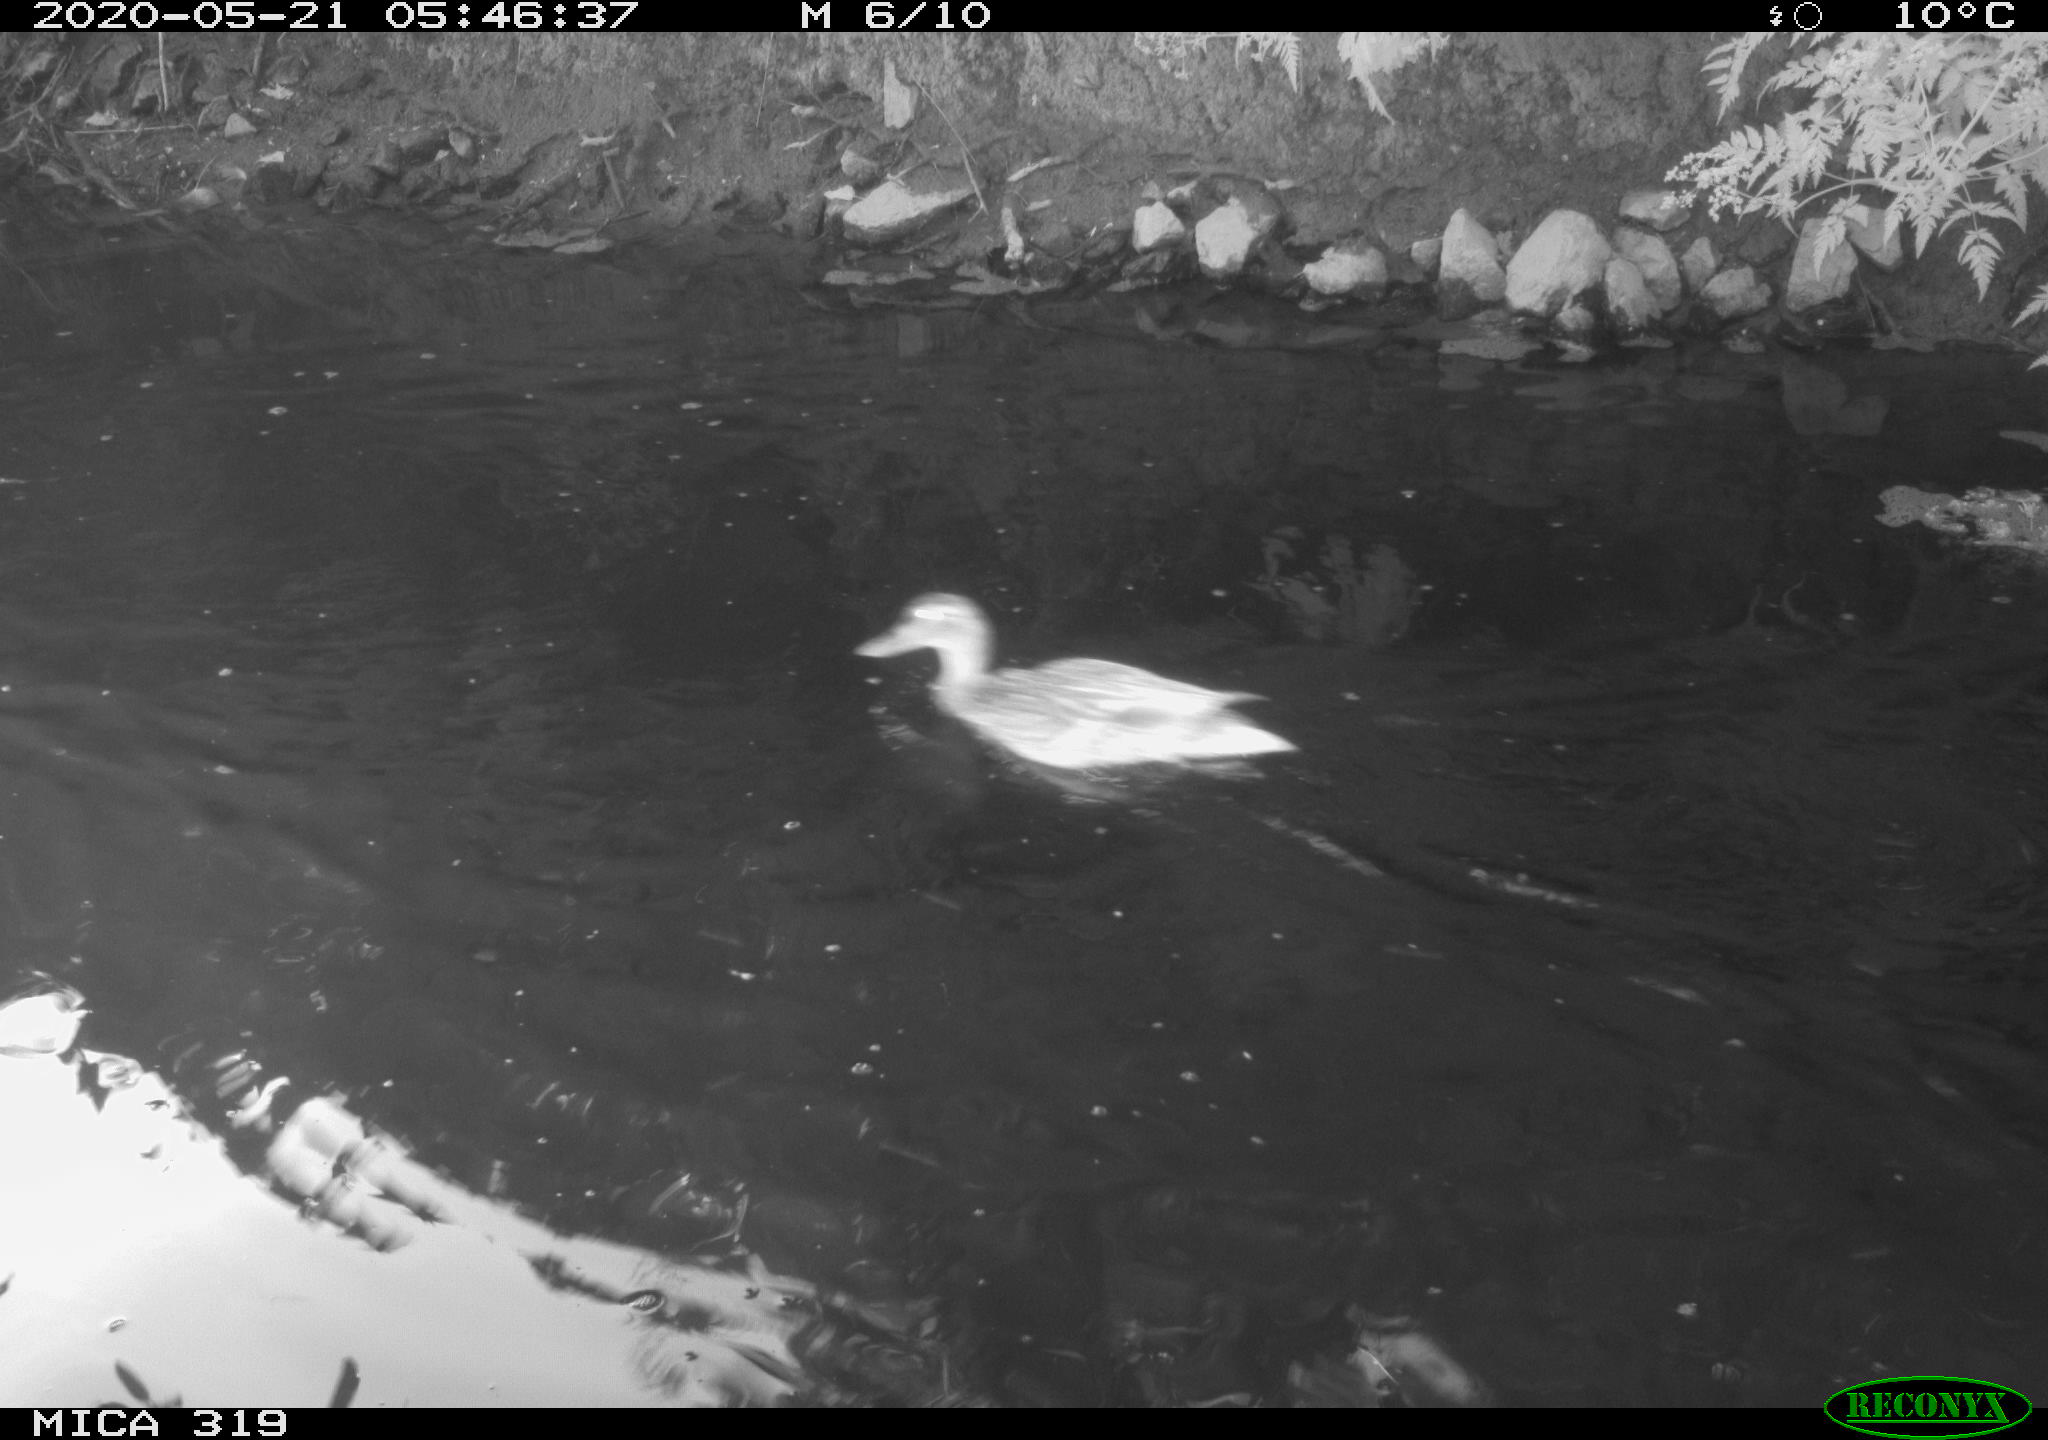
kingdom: Animalia
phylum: Chordata
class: Aves
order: Anseriformes
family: Anatidae
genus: Anas
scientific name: Anas platyrhynchos
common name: Mallard
